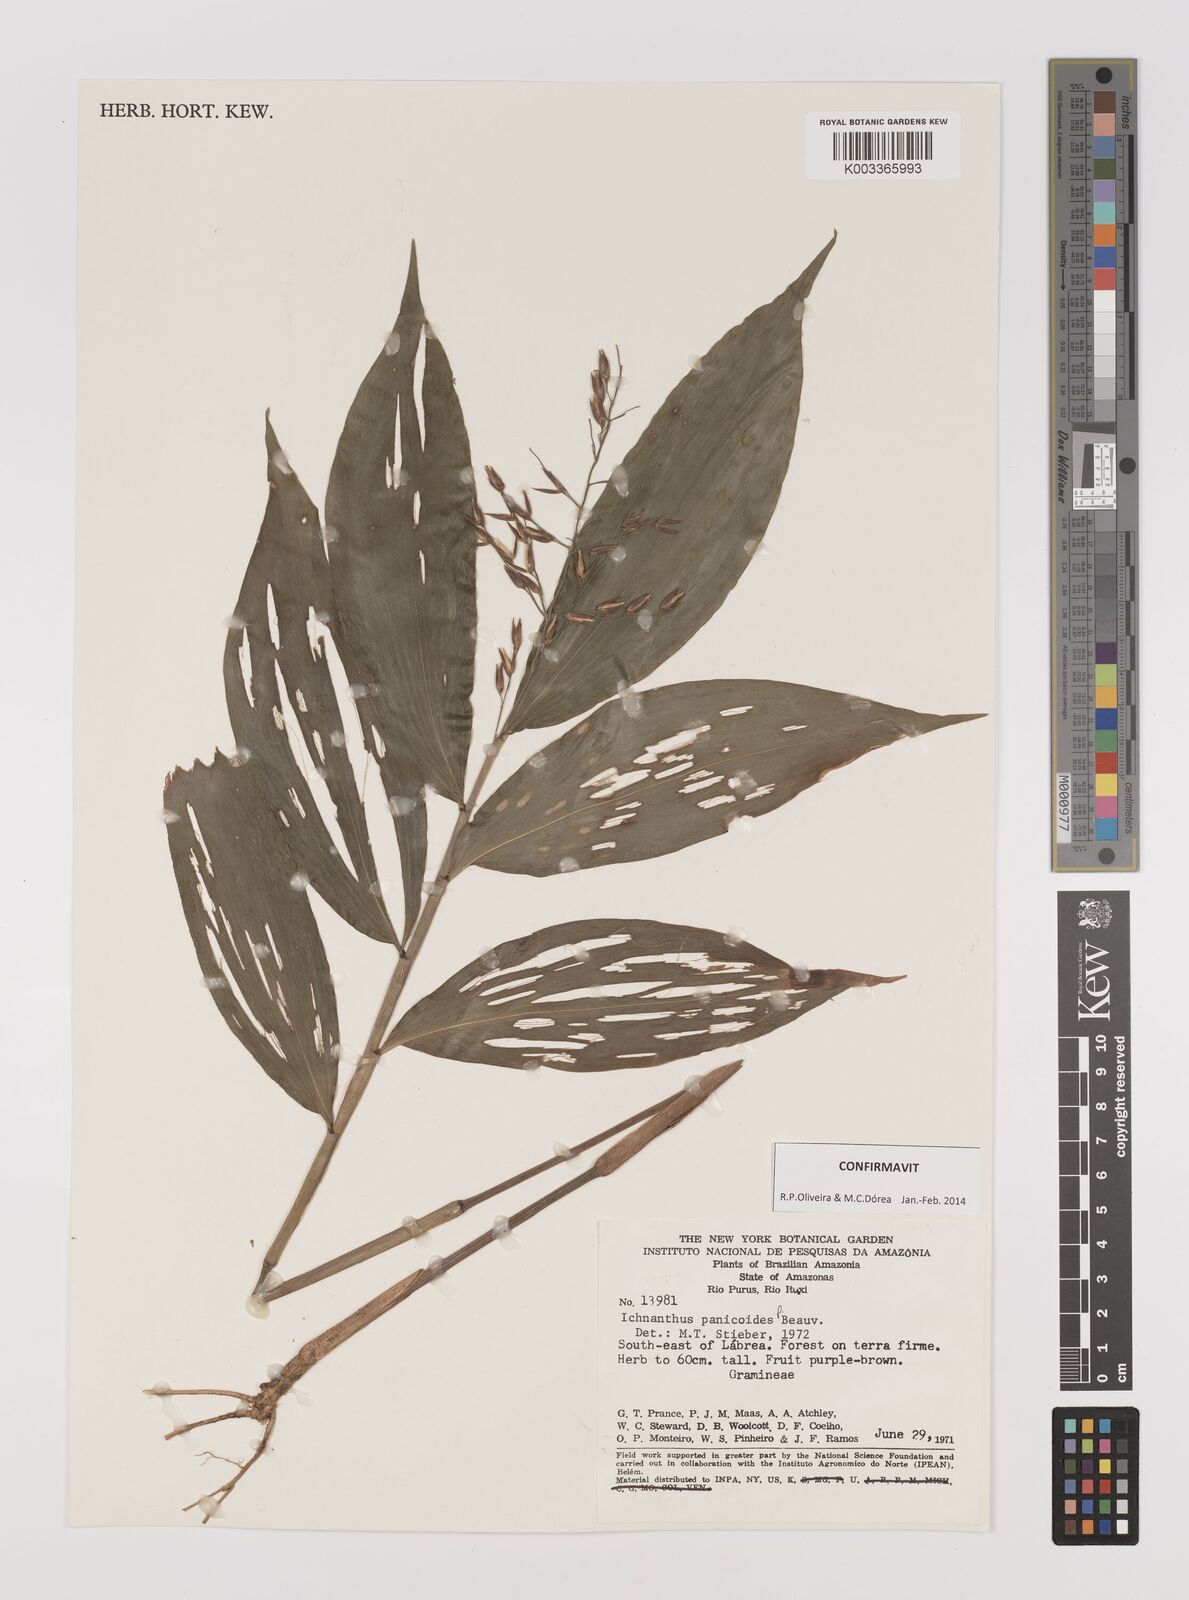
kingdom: Plantae
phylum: Tracheophyta
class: Liliopsida
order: Poales
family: Poaceae
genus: Ichnanthus
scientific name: Ichnanthus panicoides
